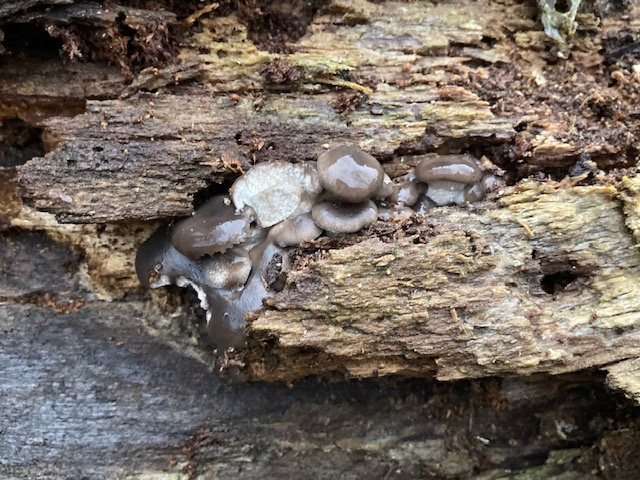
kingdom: Fungi
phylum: Basidiomycota
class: Agaricomycetes
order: Agaricales
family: Pleurotaceae
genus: Pleurotus
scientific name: Pleurotus ostreatus
